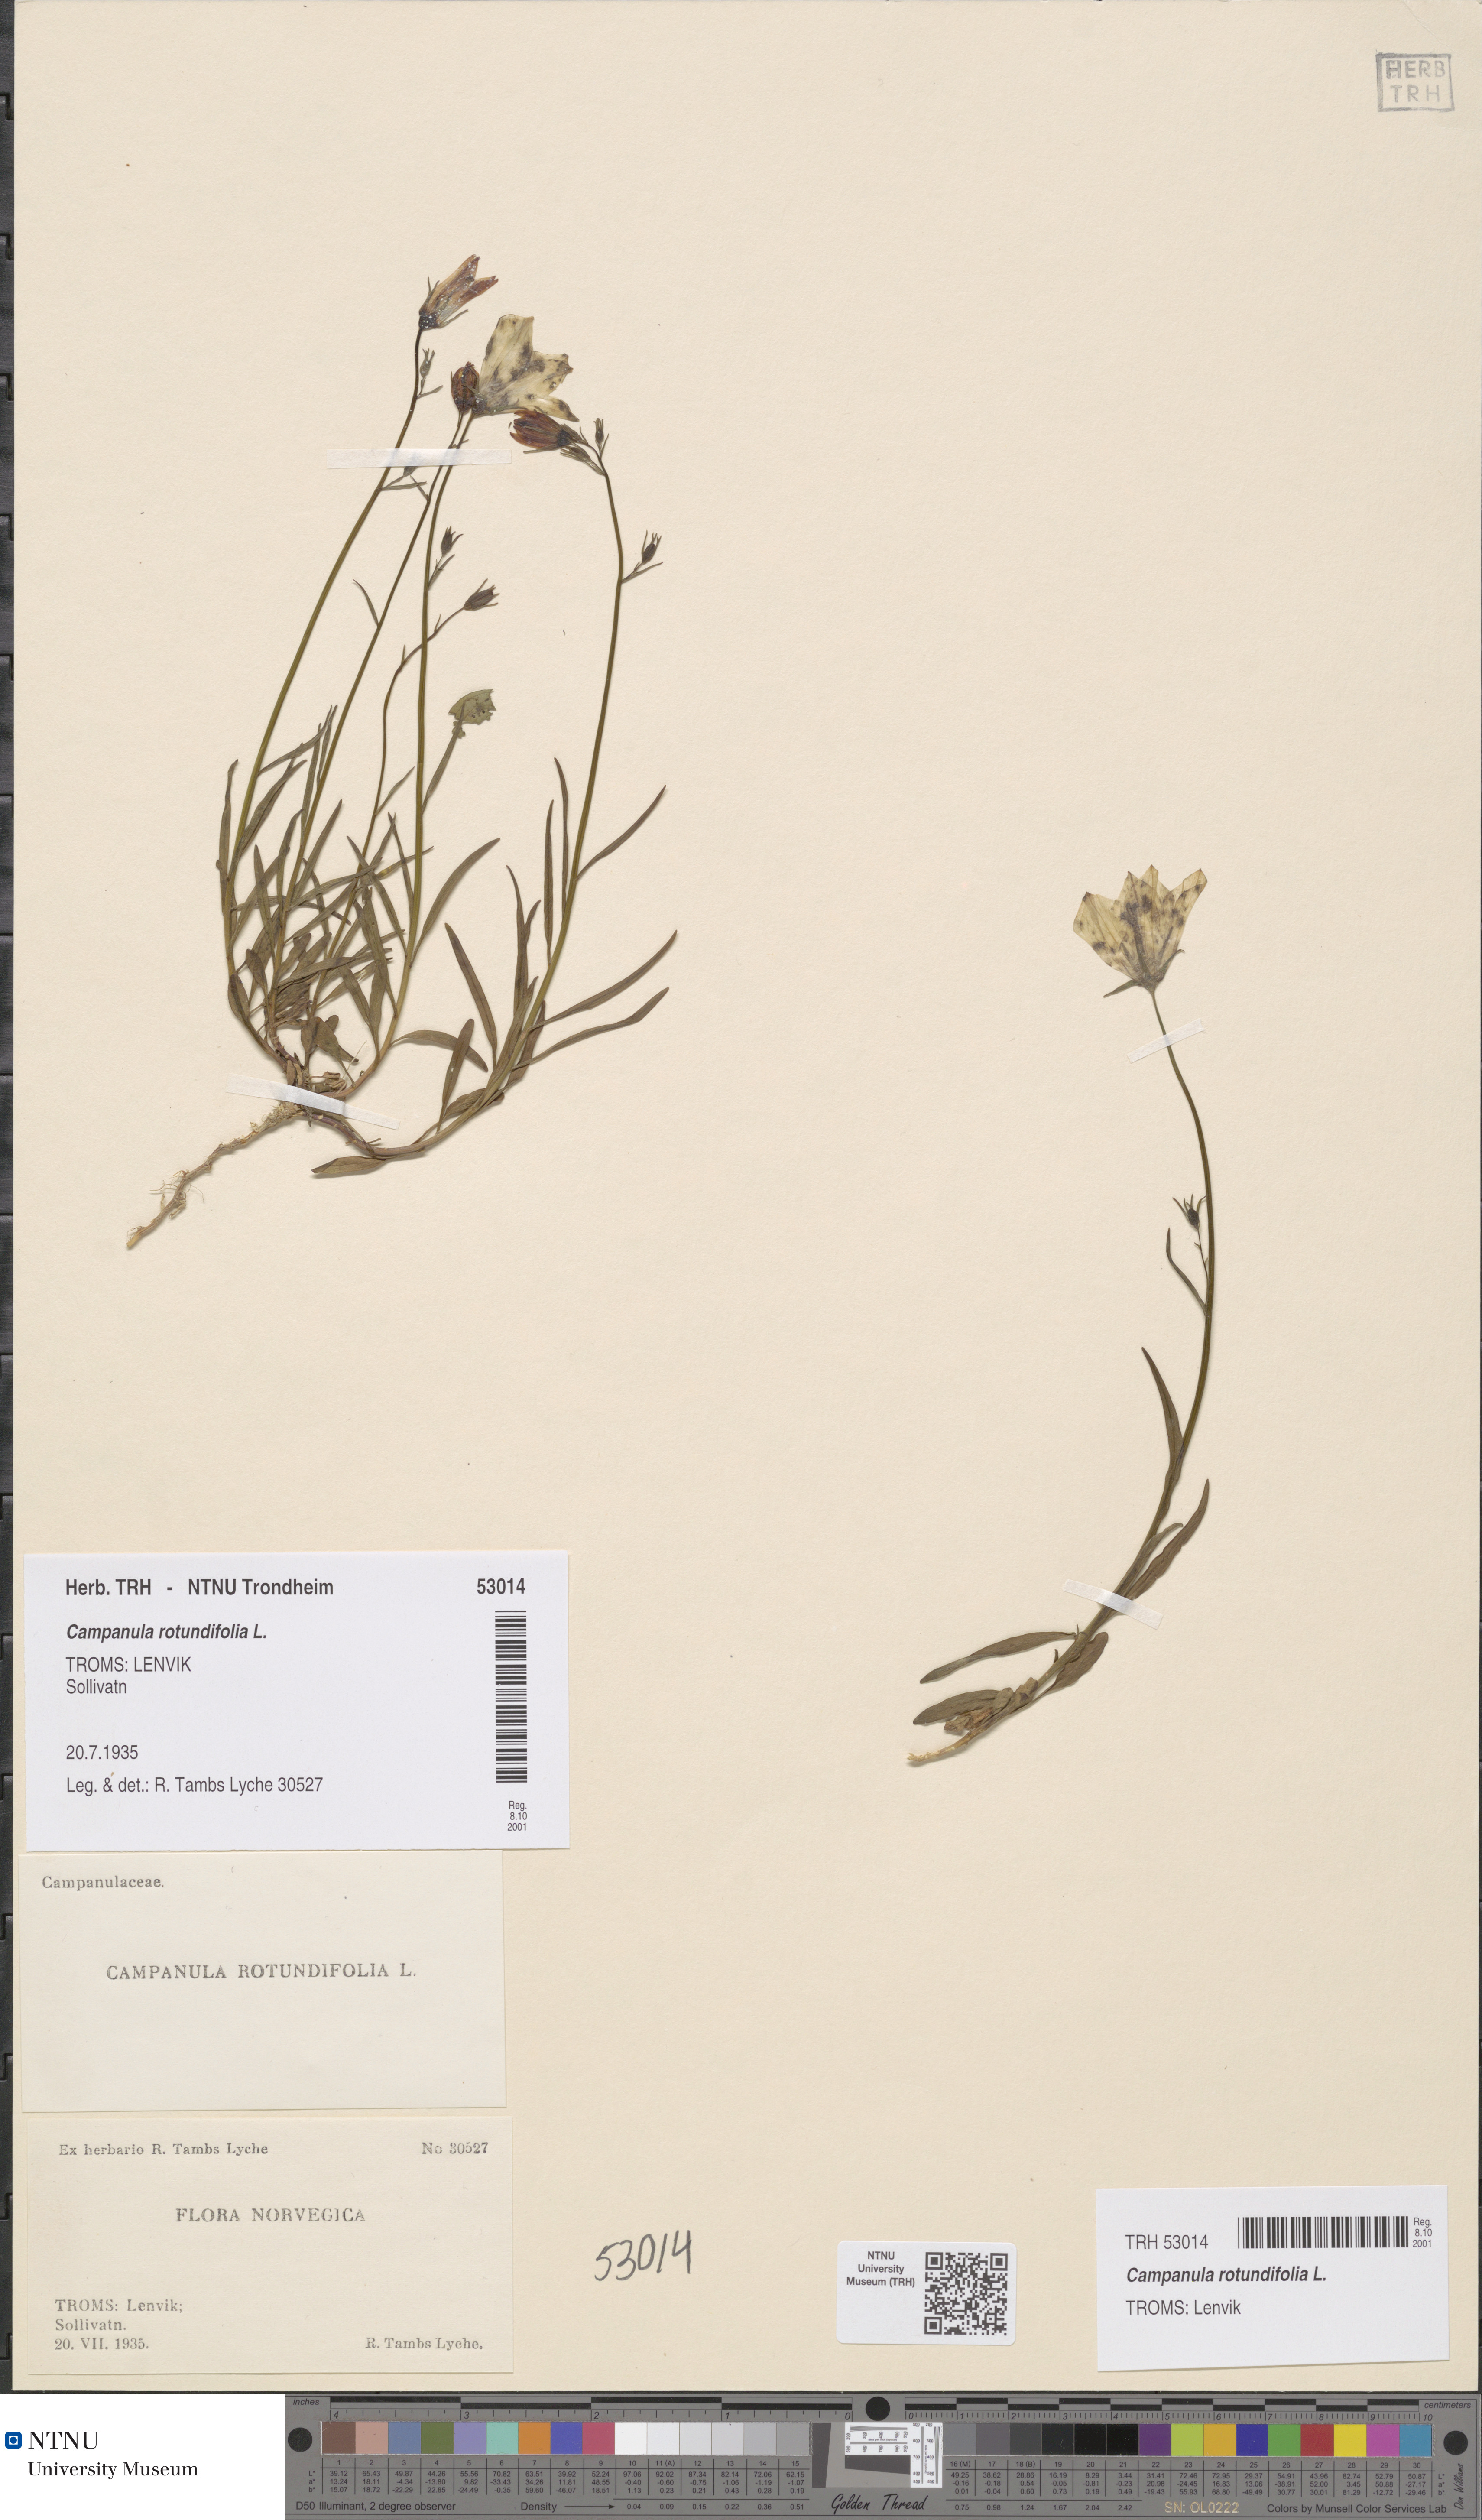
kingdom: Plantae
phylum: Tracheophyta
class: Magnoliopsida
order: Asterales
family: Campanulaceae
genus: Campanula
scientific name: Campanula rotundifolia
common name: Harebell
